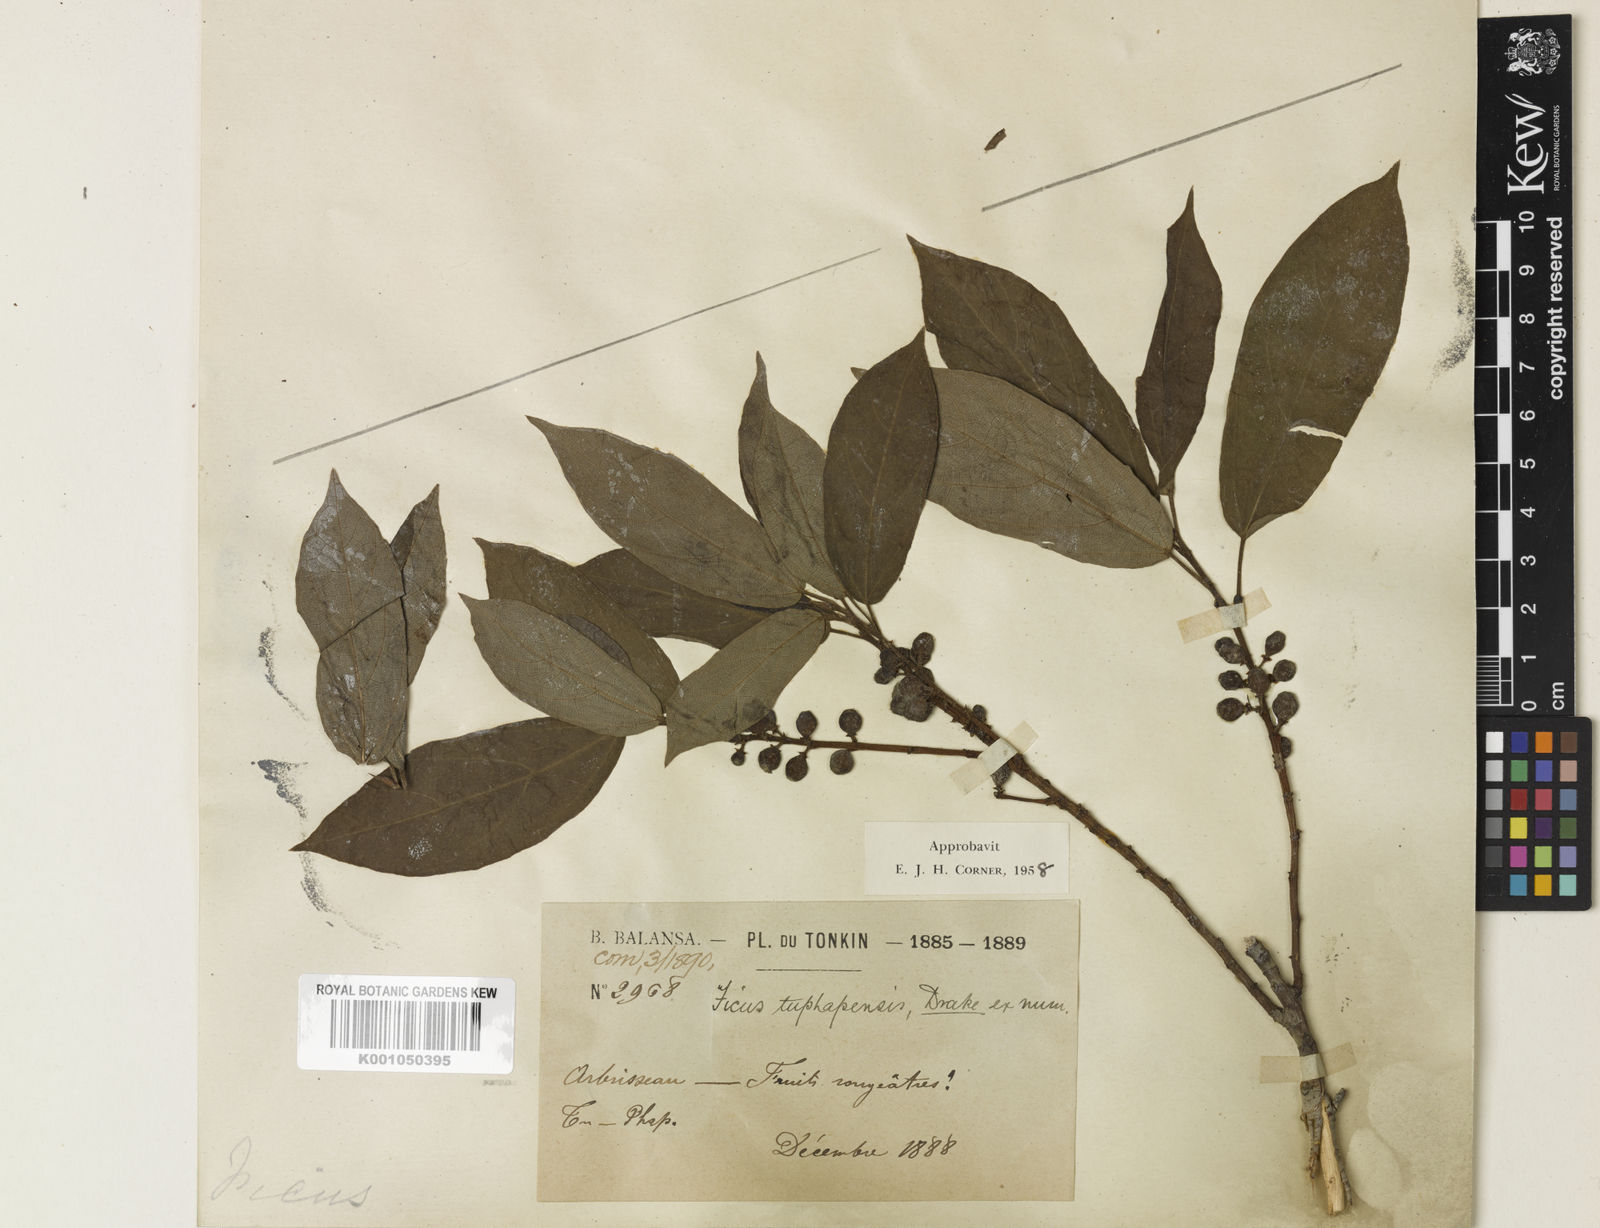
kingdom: Plantae
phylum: Tracheophyta
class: Magnoliopsida
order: Rosales
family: Moraceae
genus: Ficus
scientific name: Ficus tuphapensis
